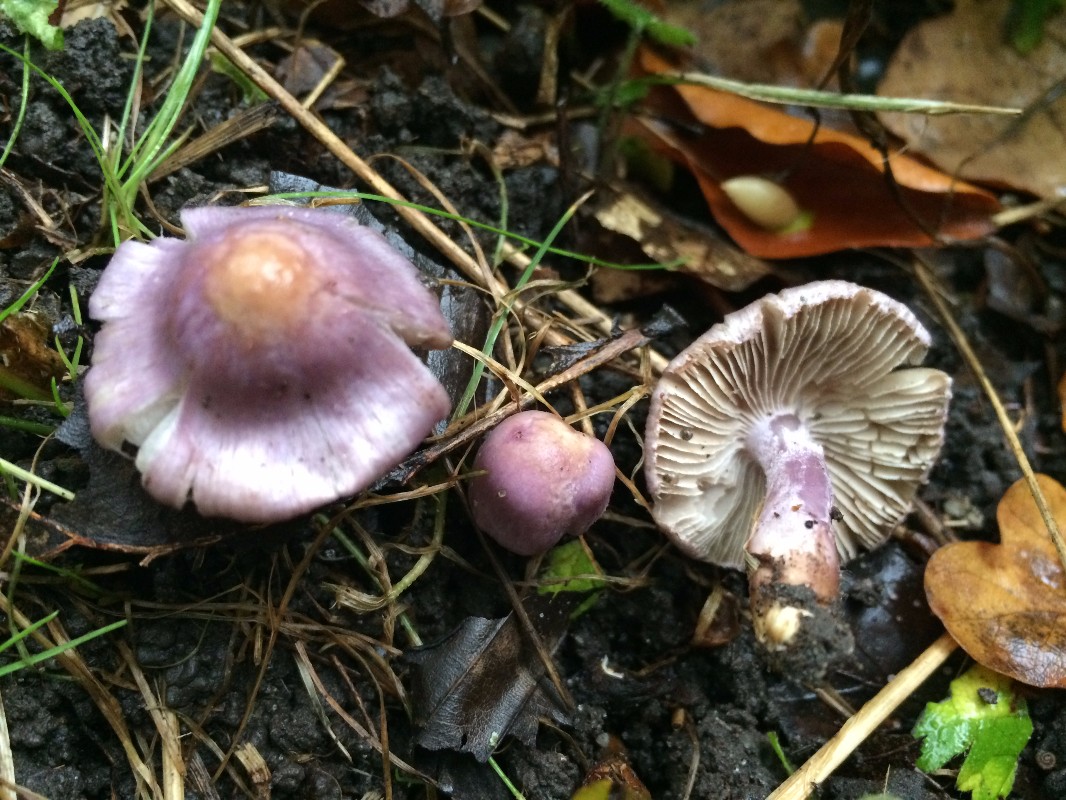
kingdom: Fungi
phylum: Basidiomycota
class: Agaricomycetes
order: Agaricales
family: Inocybaceae
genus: Inocybe
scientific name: Inocybe geophylla
